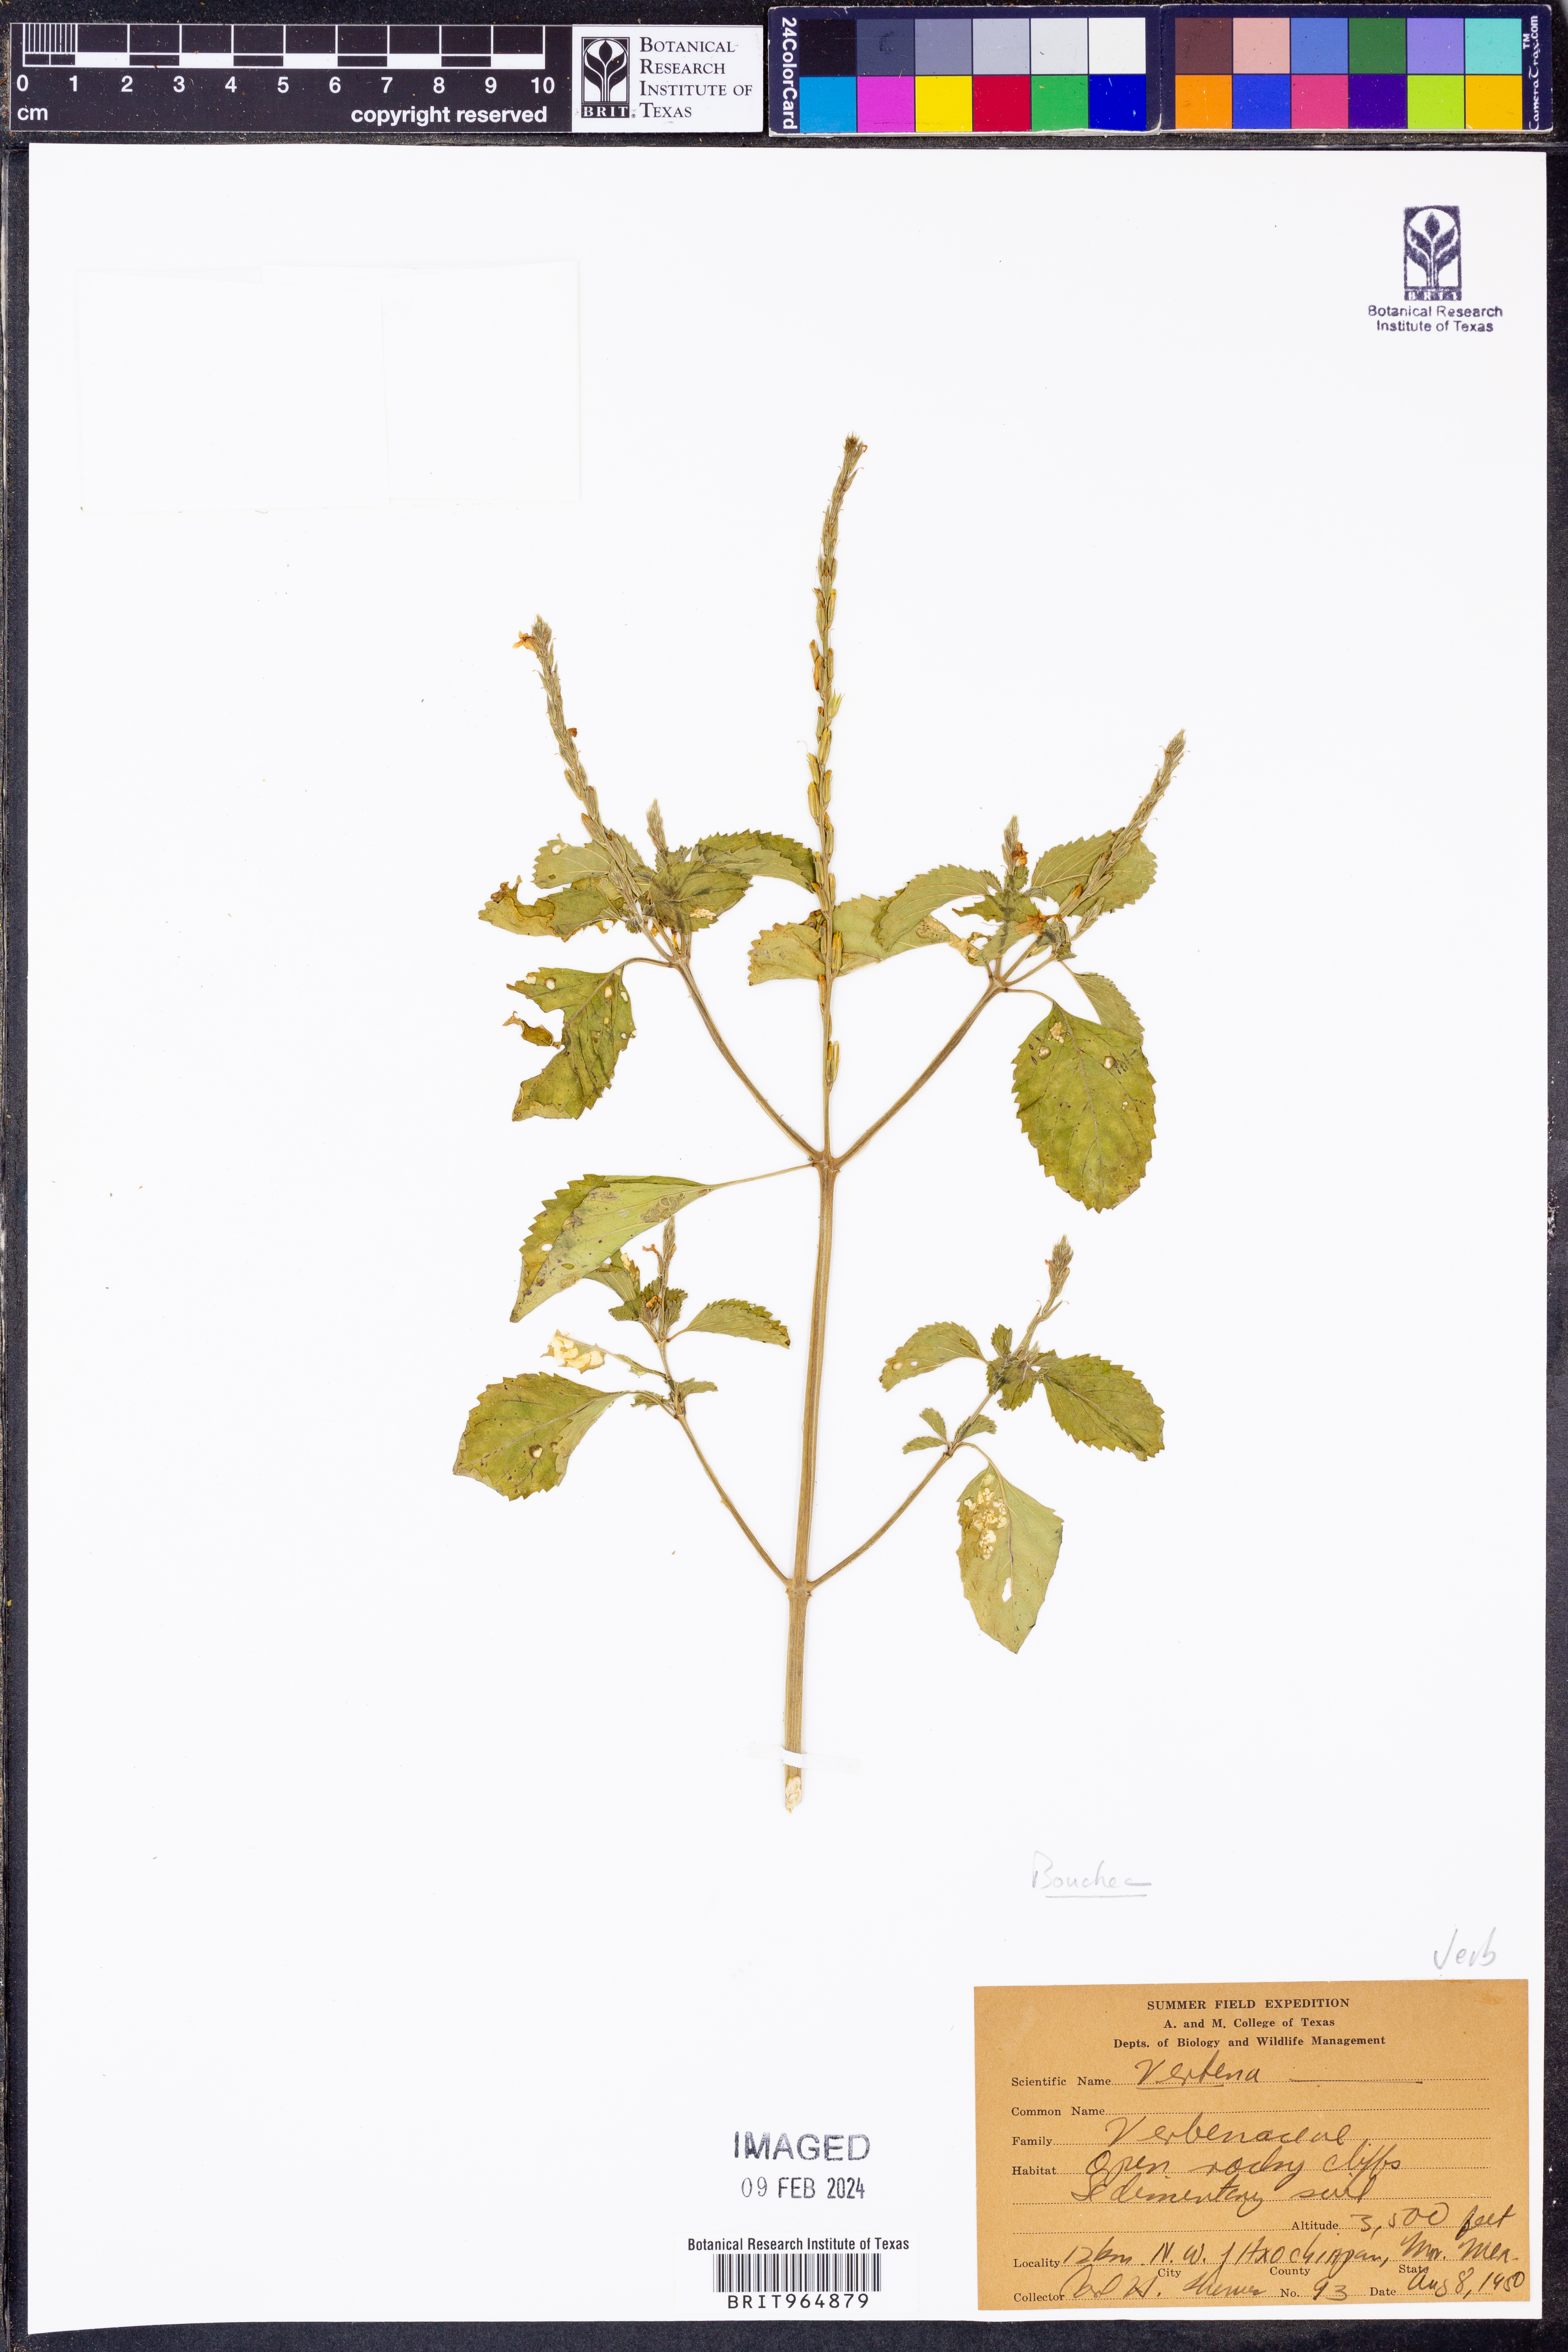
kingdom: Plantae
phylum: Tracheophyta
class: Magnoliopsida
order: Lamiales
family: Verbenaceae
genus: Bouchea
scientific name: Bouchea
